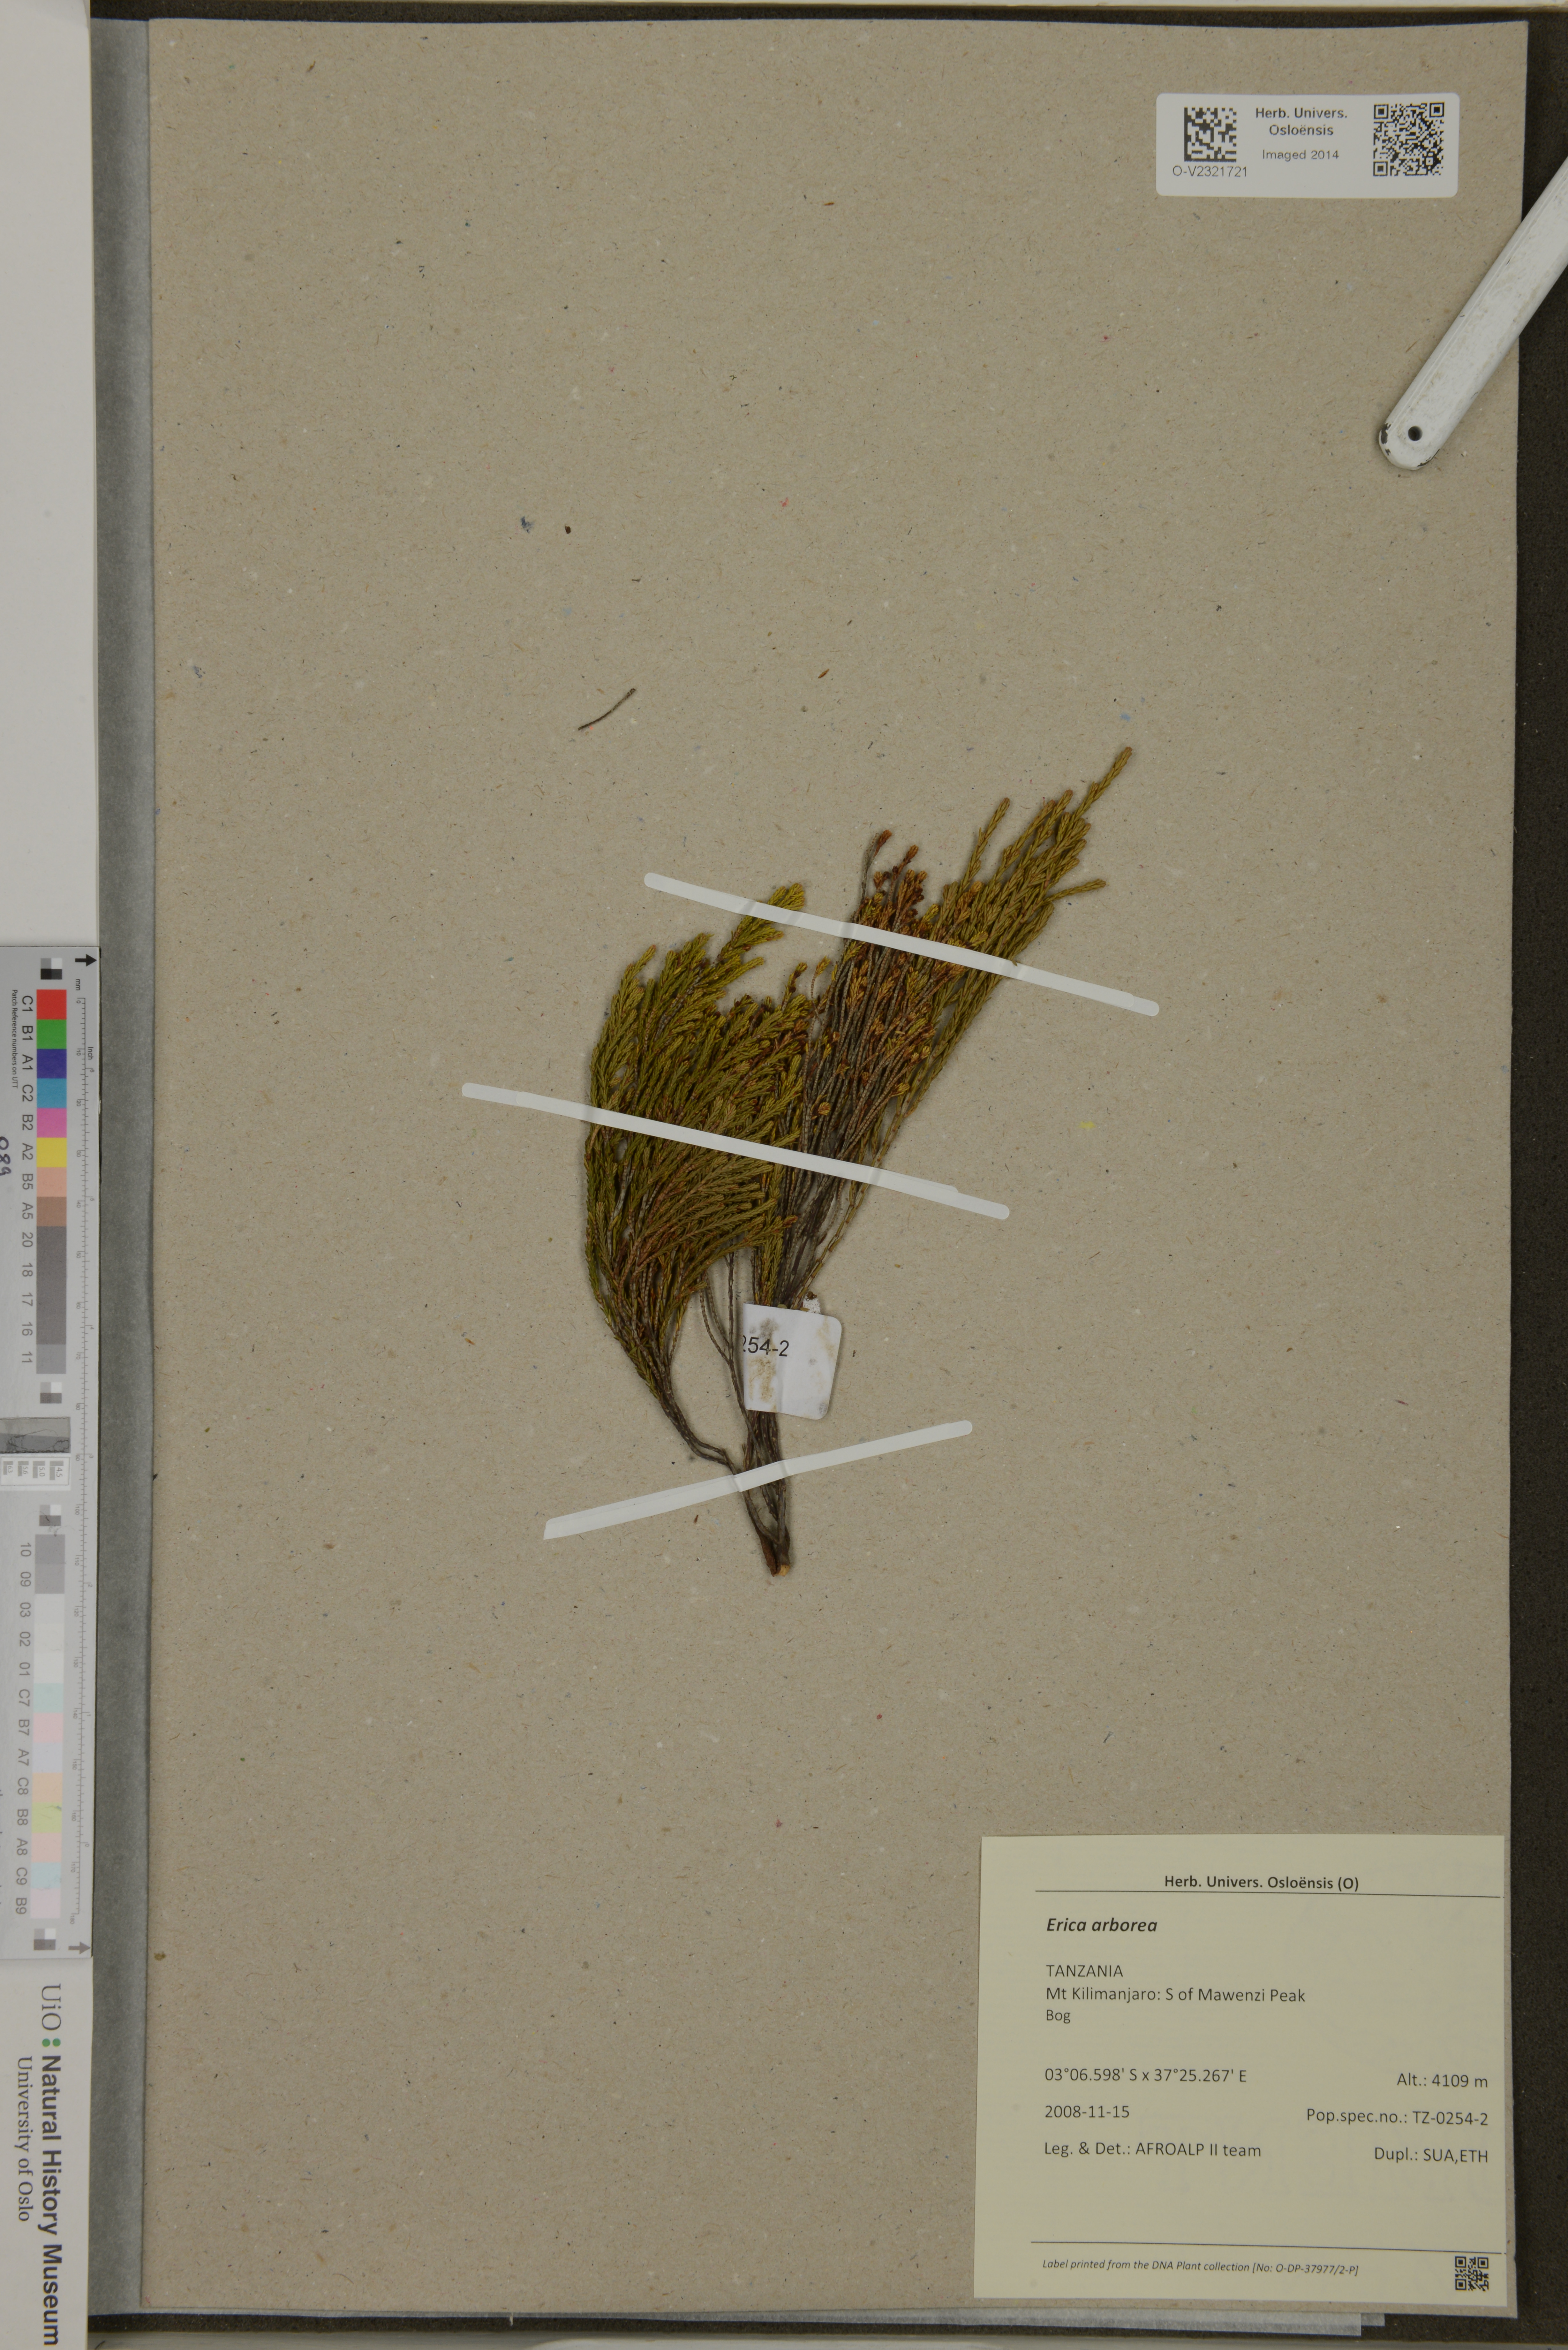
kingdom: Plantae
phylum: Tracheophyta
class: Magnoliopsida
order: Ericales
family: Ericaceae
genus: Erica
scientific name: Erica arborea
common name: Tree heath
